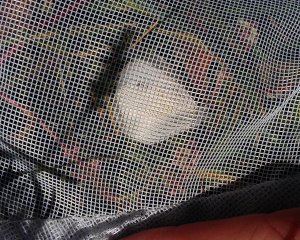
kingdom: Animalia
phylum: Arthropoda
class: Insecta
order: Lepidoptera
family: Pieridae
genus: Pieris
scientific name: Pieris rapae
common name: Cabbage White
